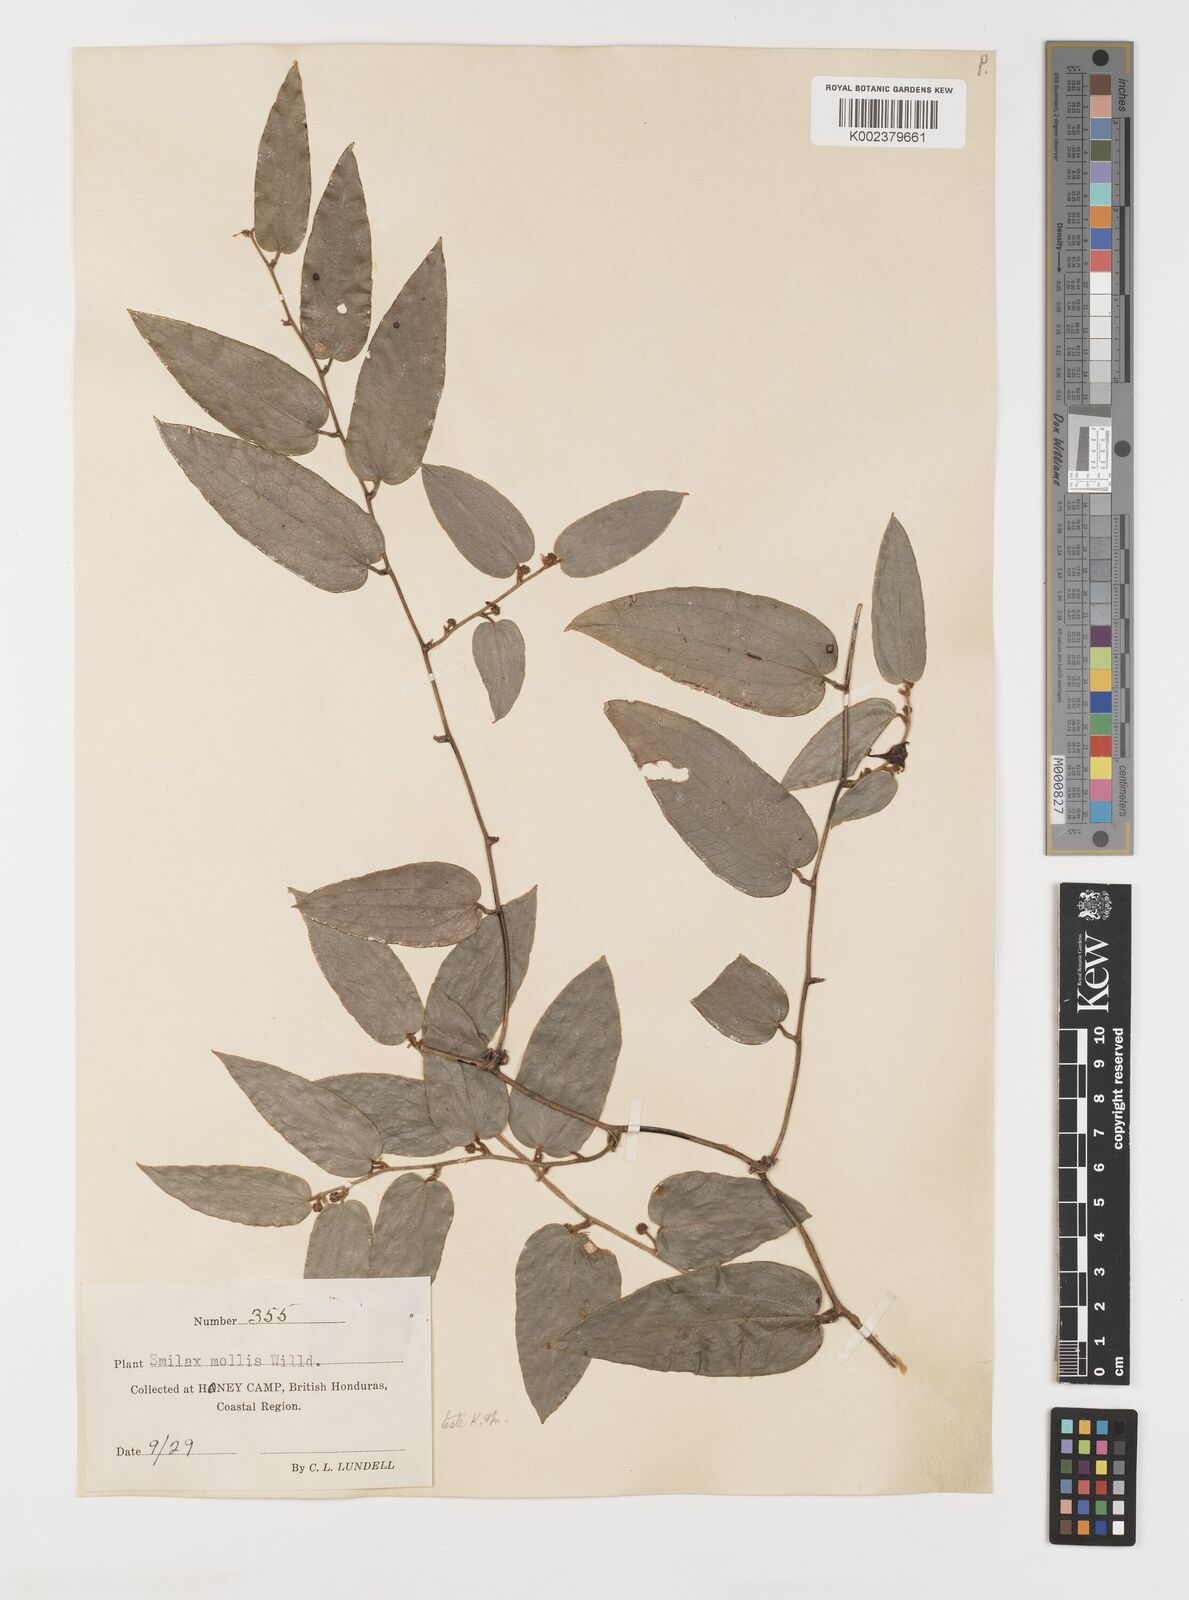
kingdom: Plantae
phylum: Tracheophyta
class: Liliopsida
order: Liliales
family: Smilacaceae
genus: Smilax
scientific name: Smilax mollis
